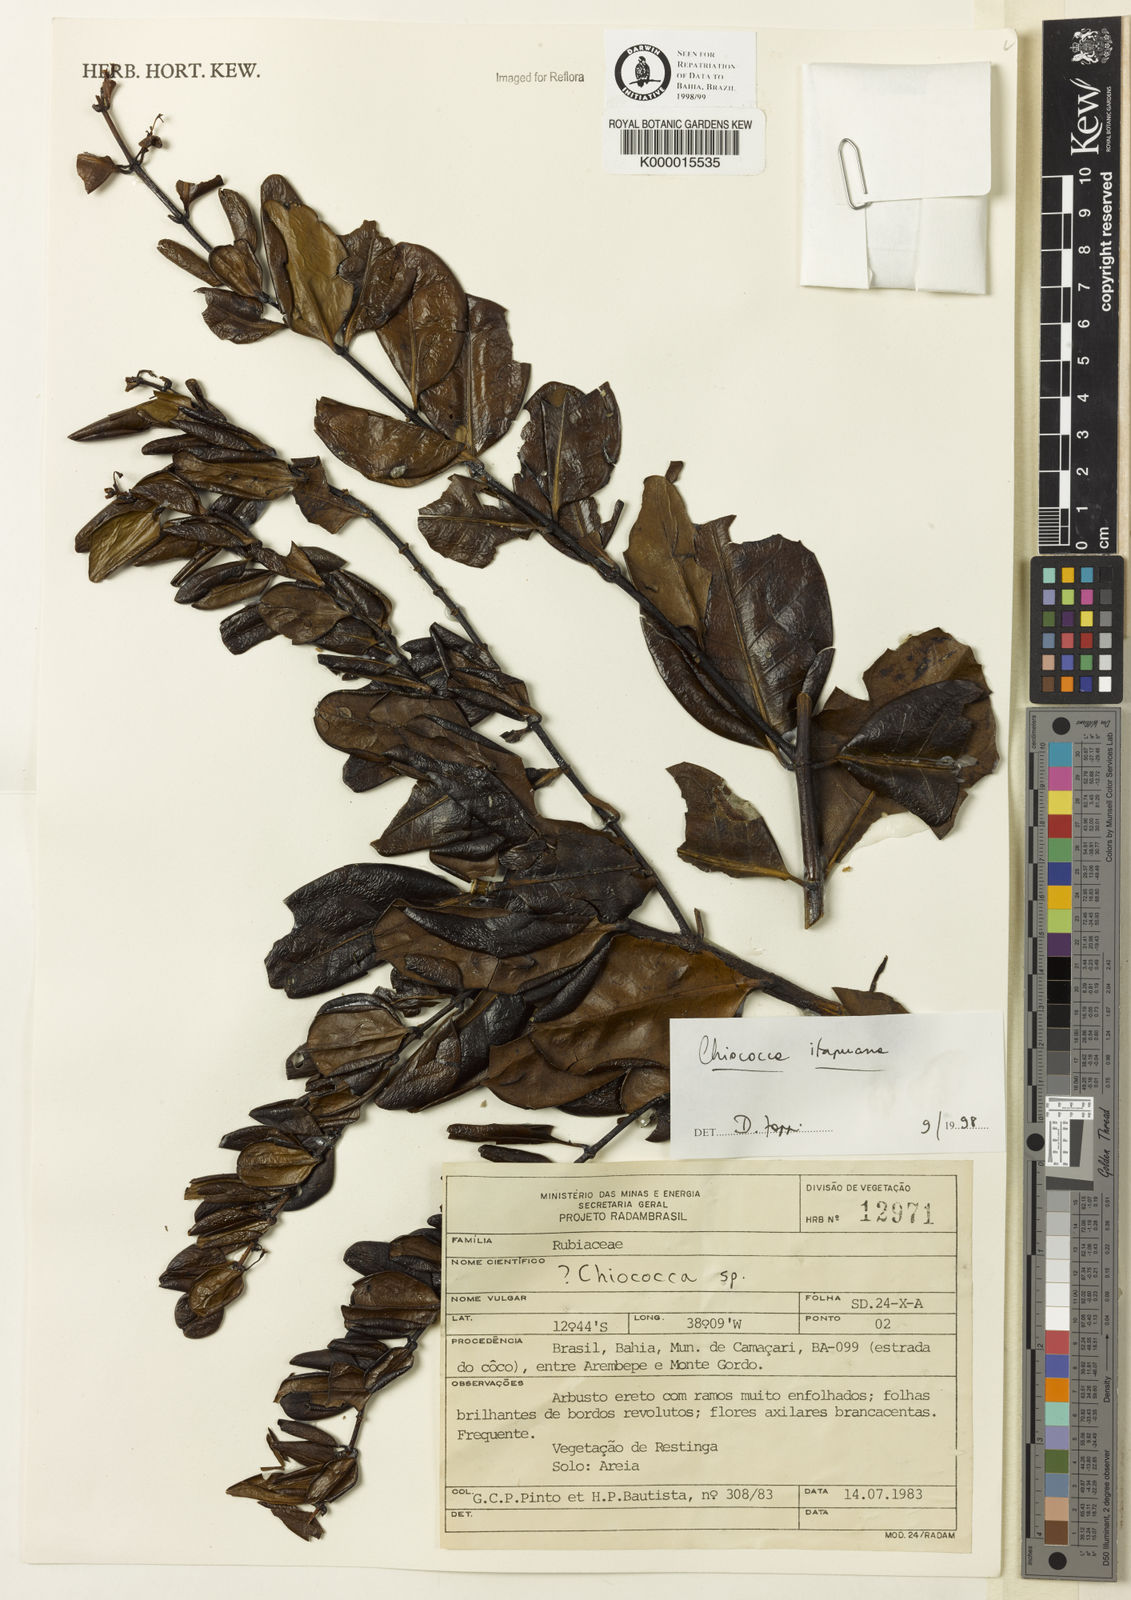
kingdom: Plantae
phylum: Tracheophyta
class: Magnoliopsida
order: Gentianales
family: Rubiaceae
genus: Chiococca
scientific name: Chiococca
